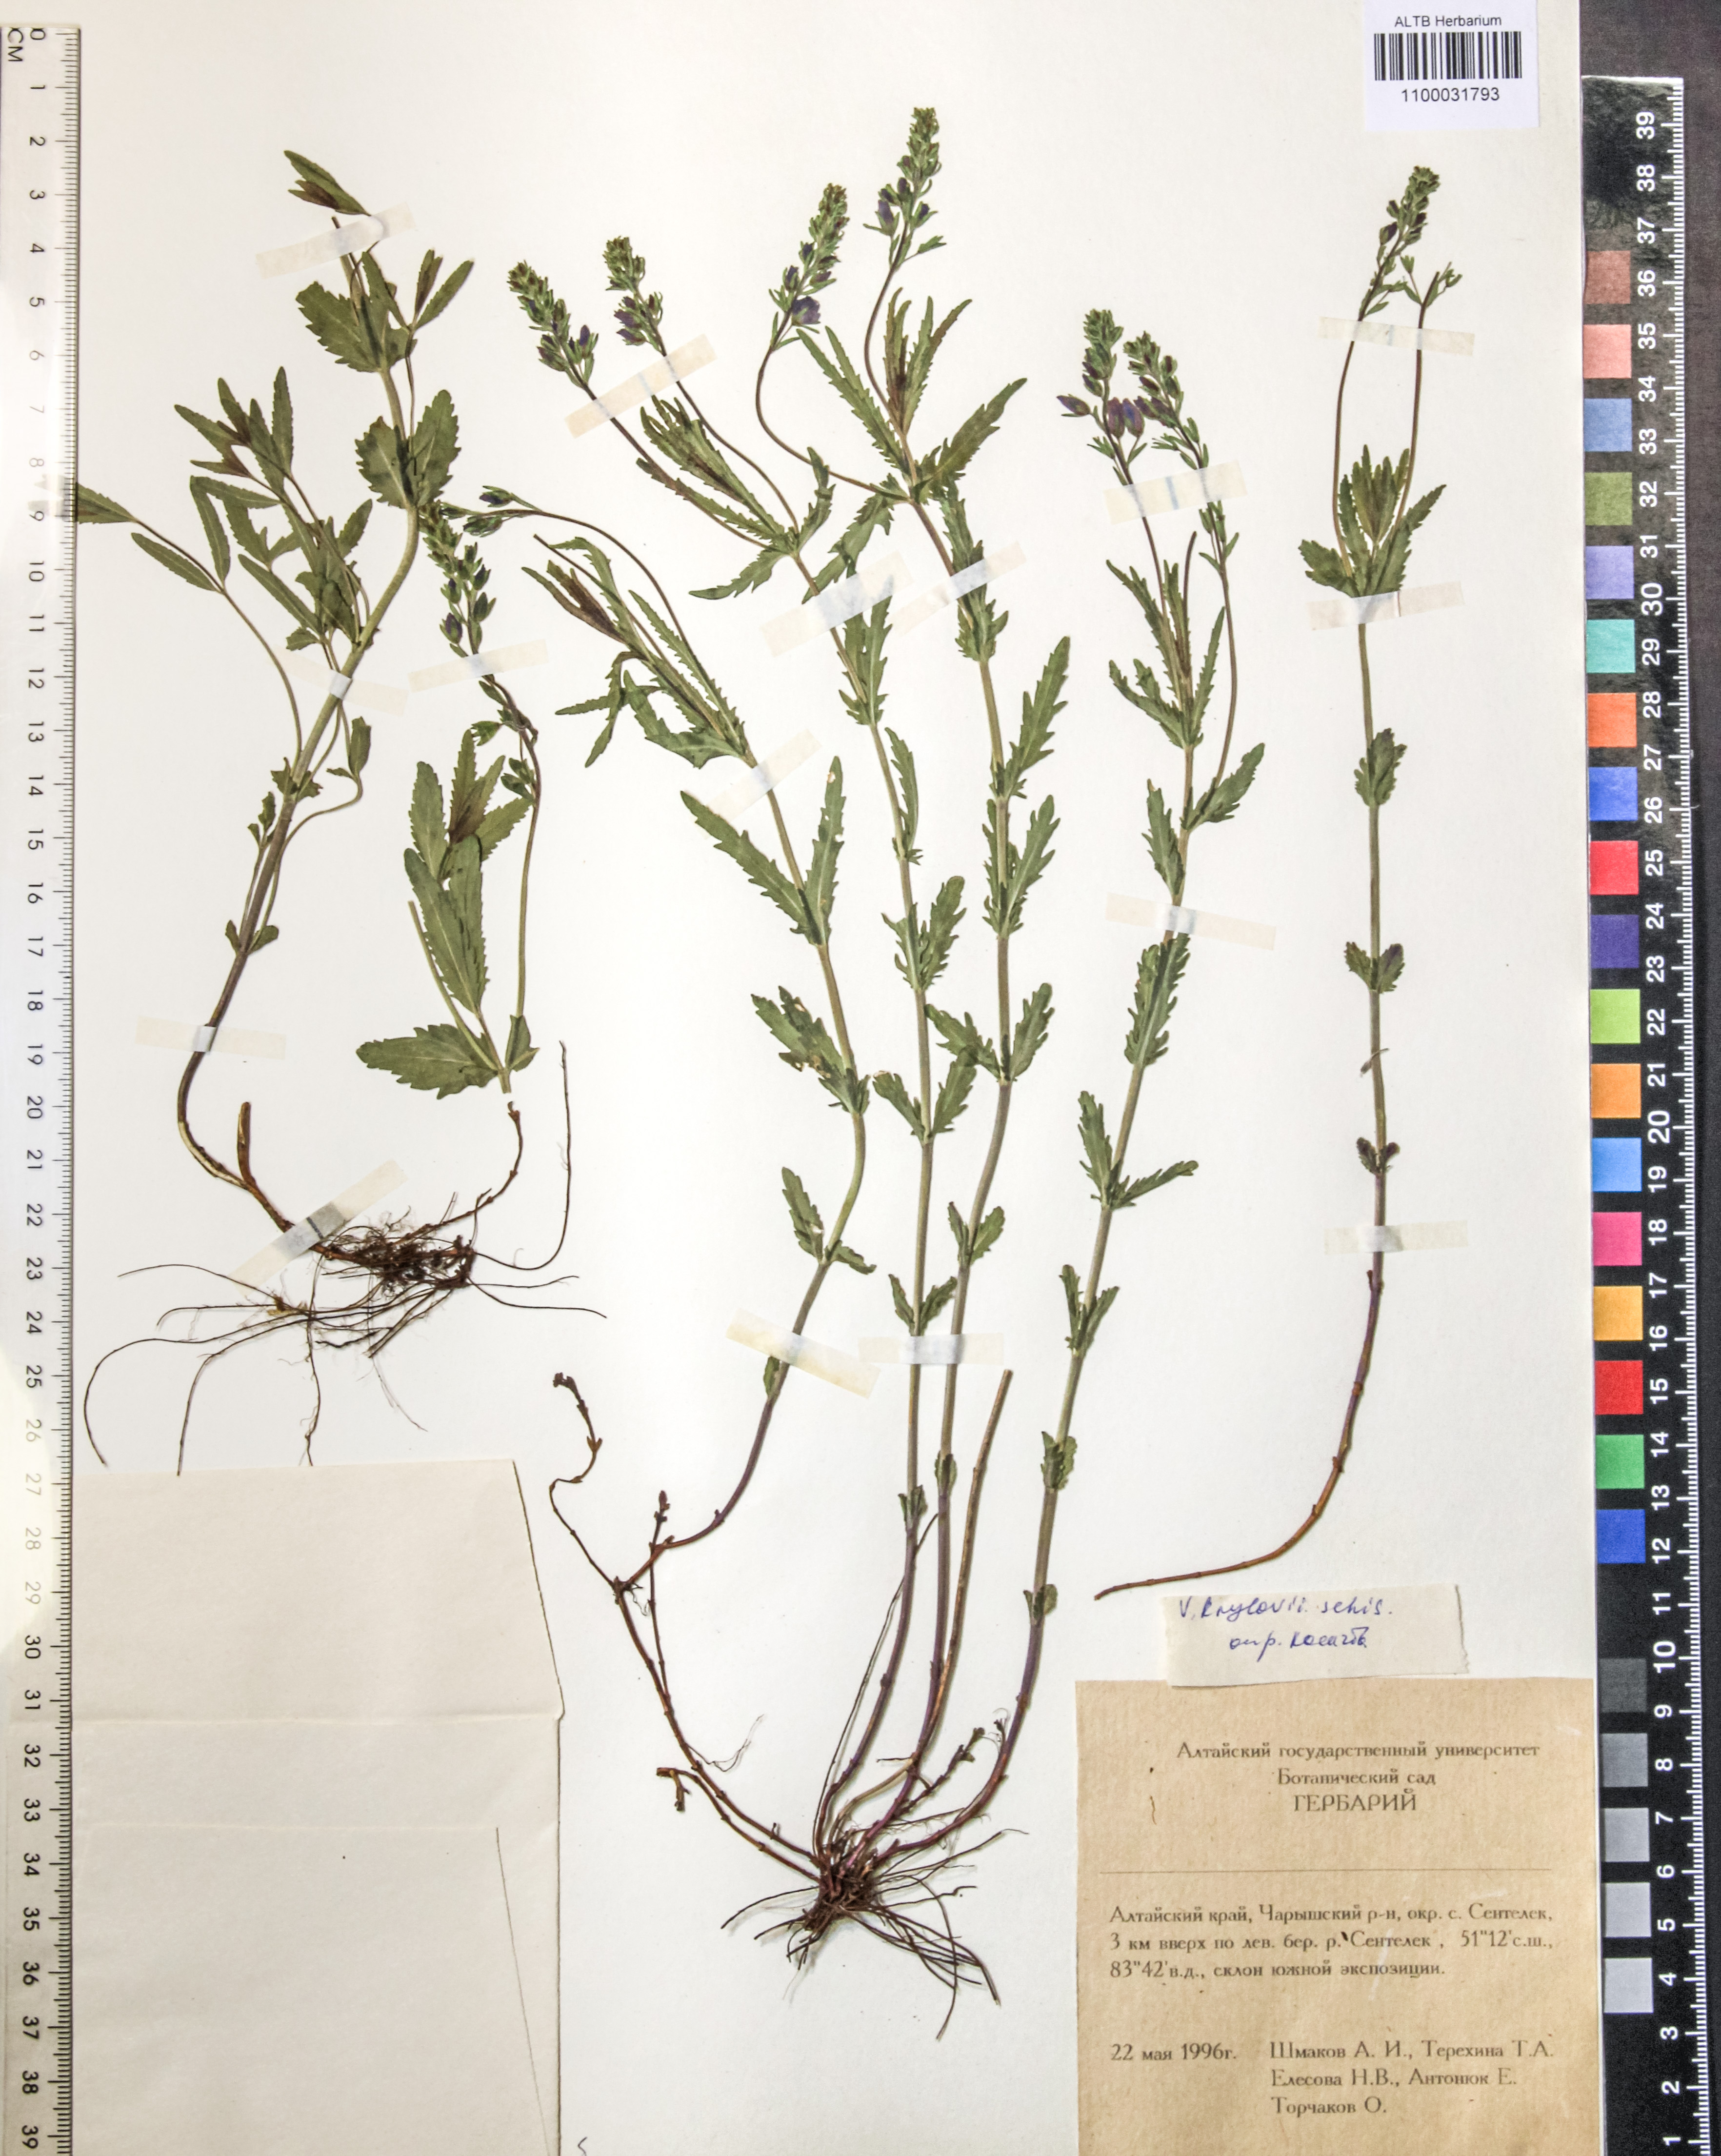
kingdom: Plantae
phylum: Tracheophyta
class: Magnoliopsida
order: Lamiales
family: Plantaginaceae
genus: Veronica
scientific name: Veronica krylovii
